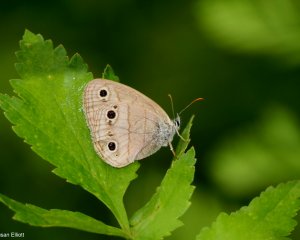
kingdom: Animalia
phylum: Arthropoda
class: Insecta
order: Lepidoptera
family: Nymphalidae
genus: Euptychia
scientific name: Euptychia cymela
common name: Little Wood Satyr
